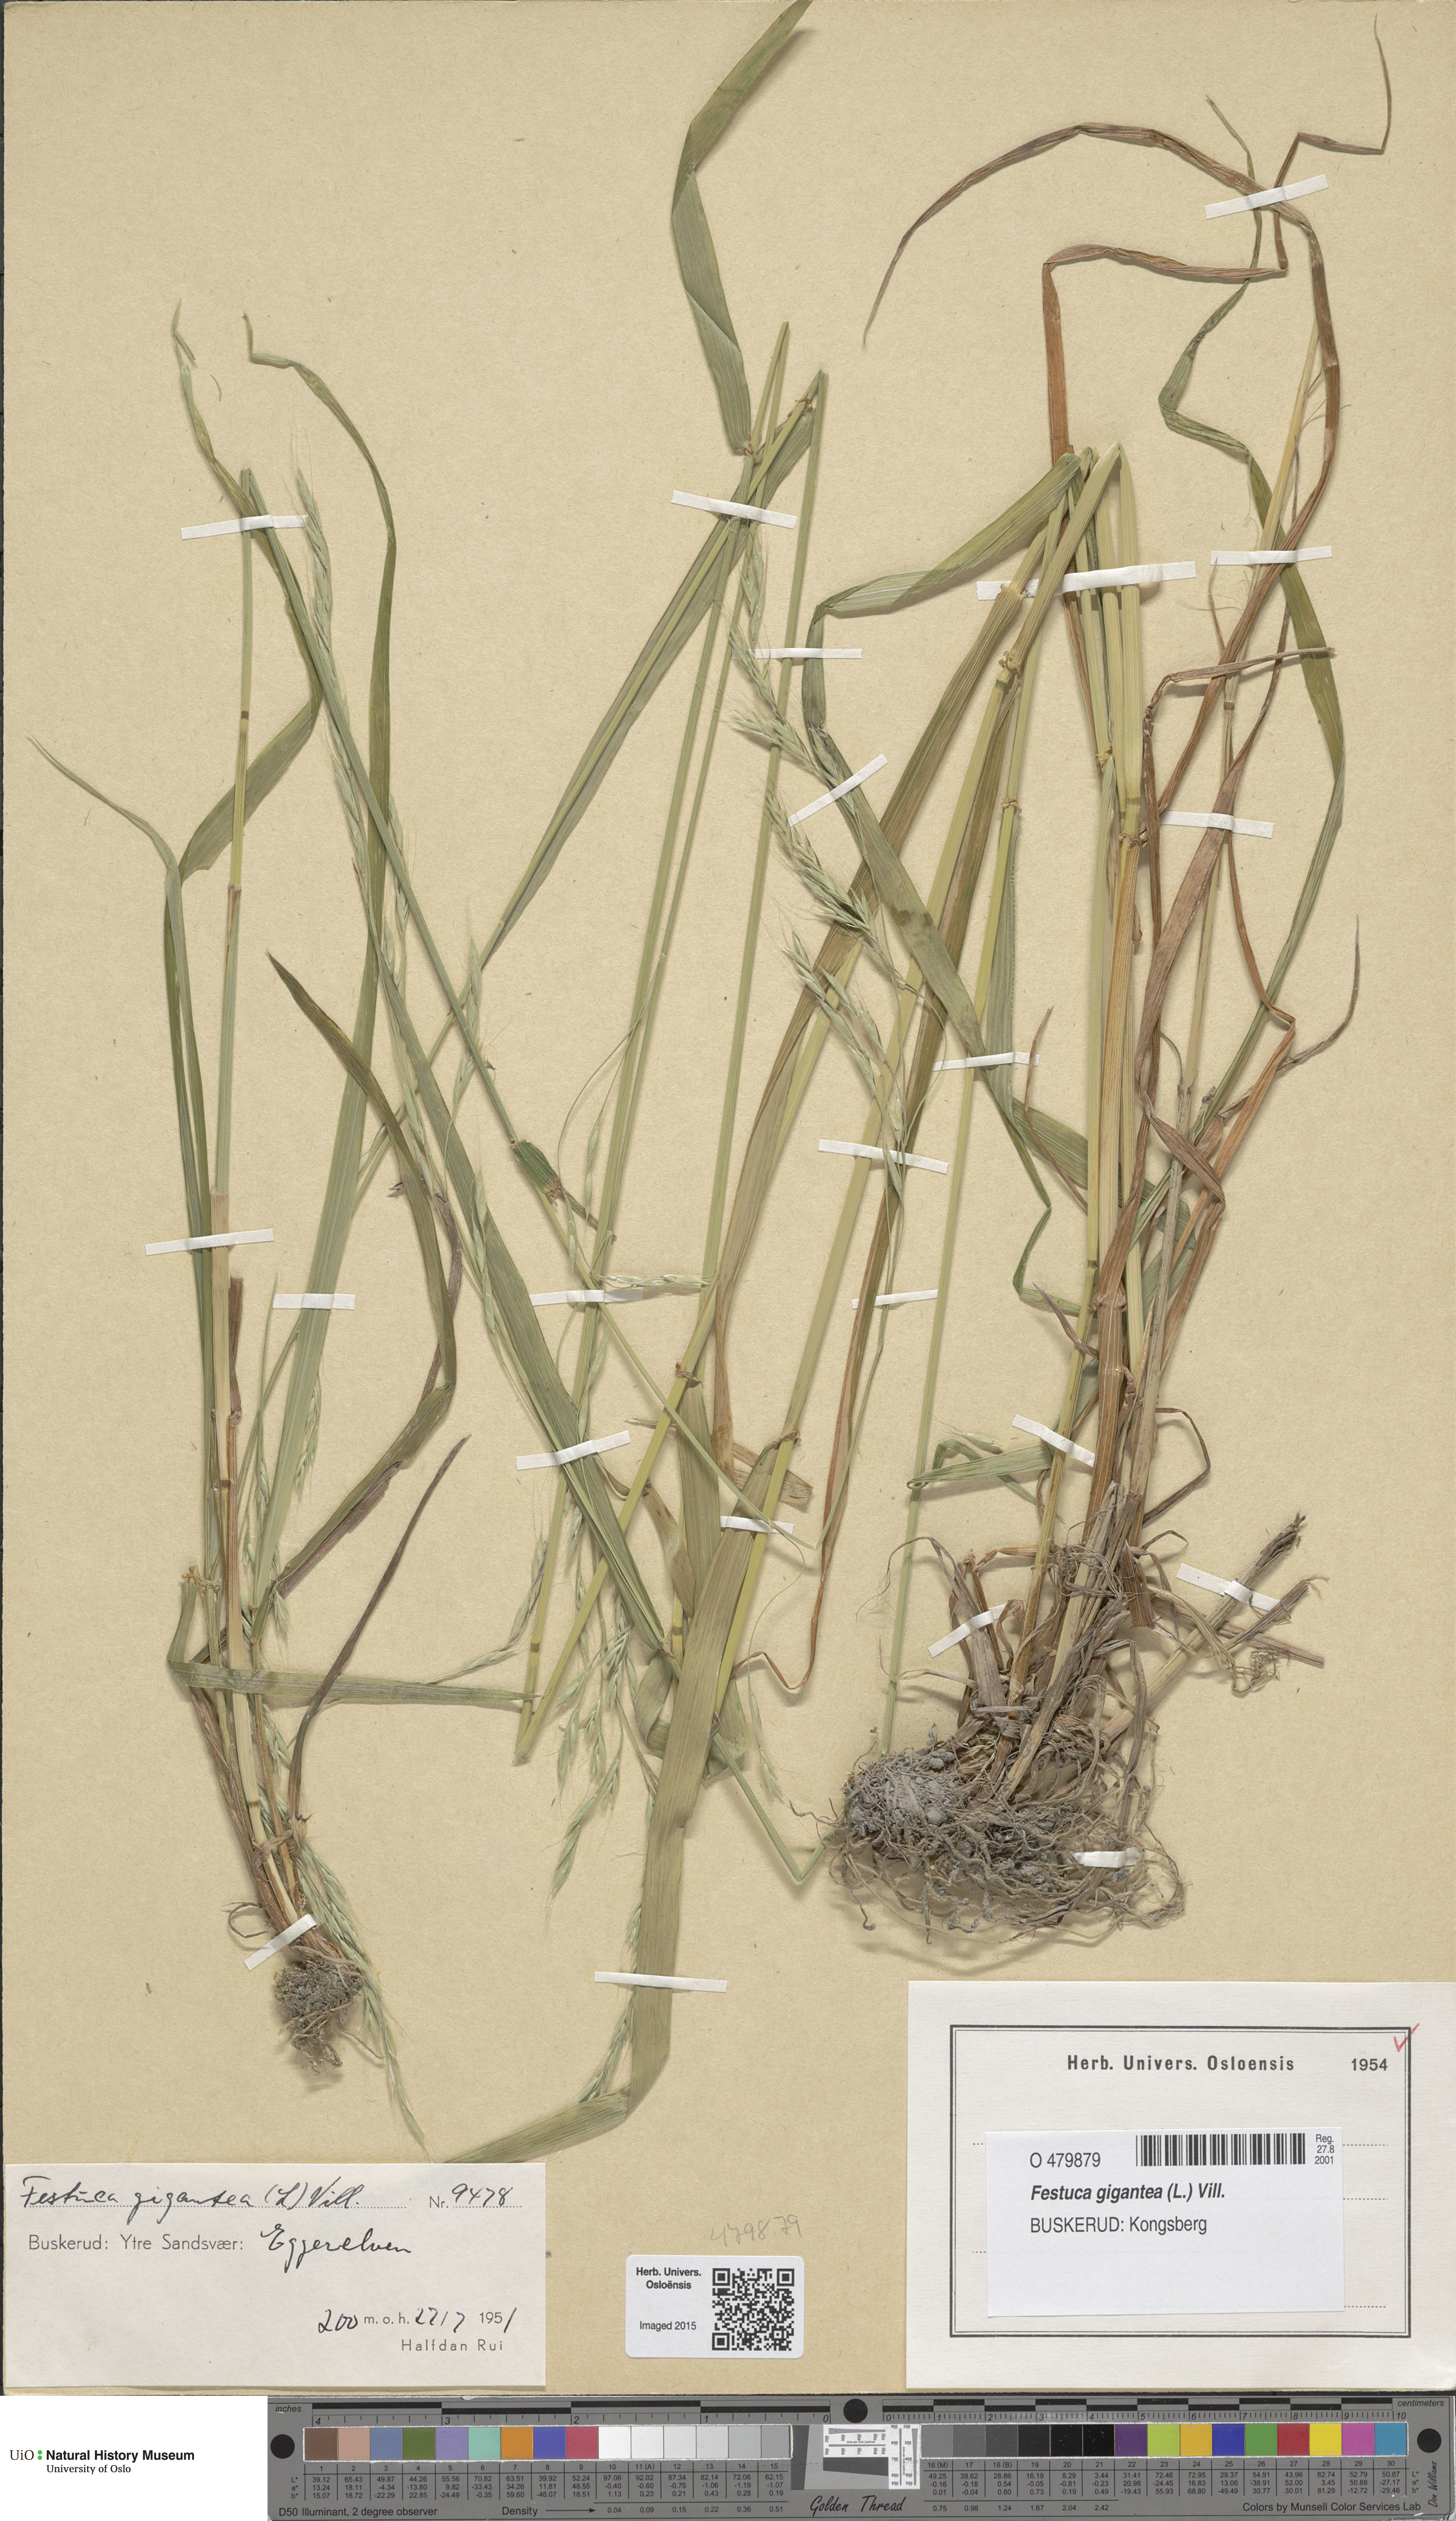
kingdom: Plantae
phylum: Tracheophyta
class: Liliopsida
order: Poales
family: Poaceae
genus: Lolium
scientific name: Lolium giganteum
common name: Giant fescue
